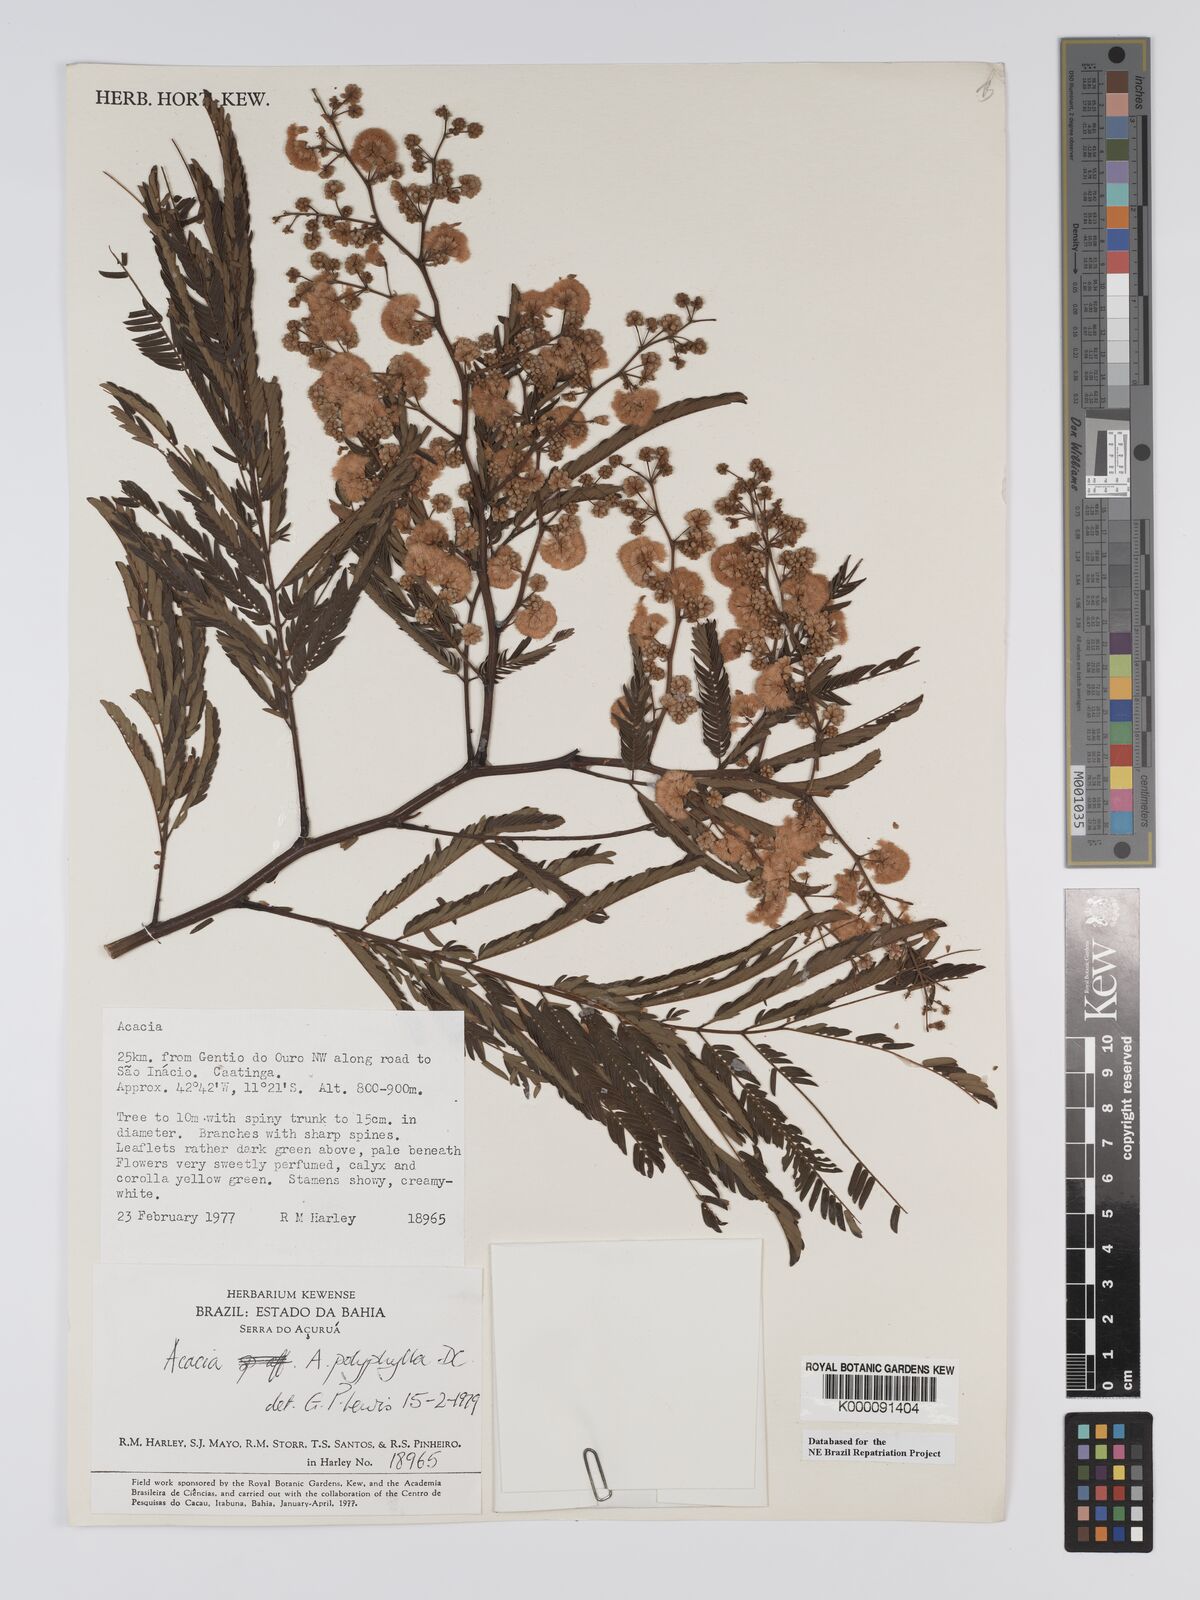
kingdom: Plantae
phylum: Tracheophyta
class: Magnoliopsida
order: Fabales
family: Fabaceae
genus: Senegalia
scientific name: Senegalia polyphylla
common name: White-tamarind
